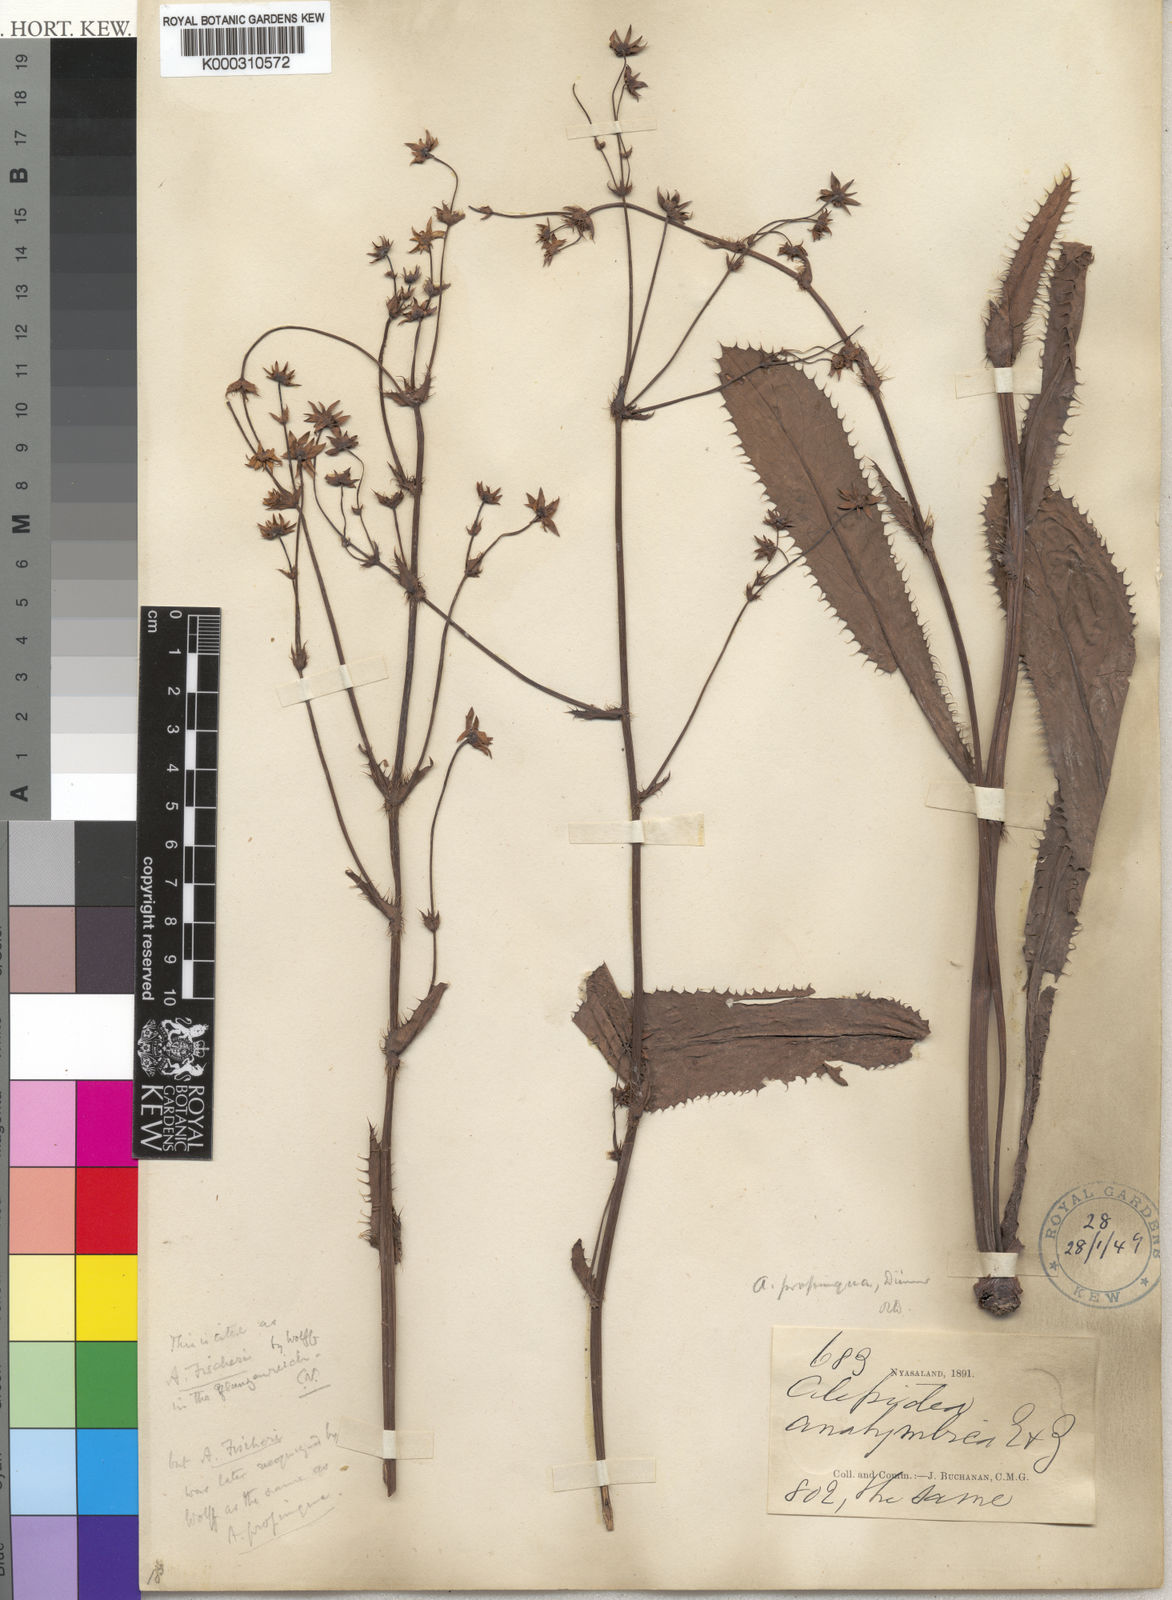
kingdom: Plantae
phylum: Tracheophyta
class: Magnoliopsida
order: Apiales
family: Apiaceae
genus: Alepidea
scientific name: Alepidea
